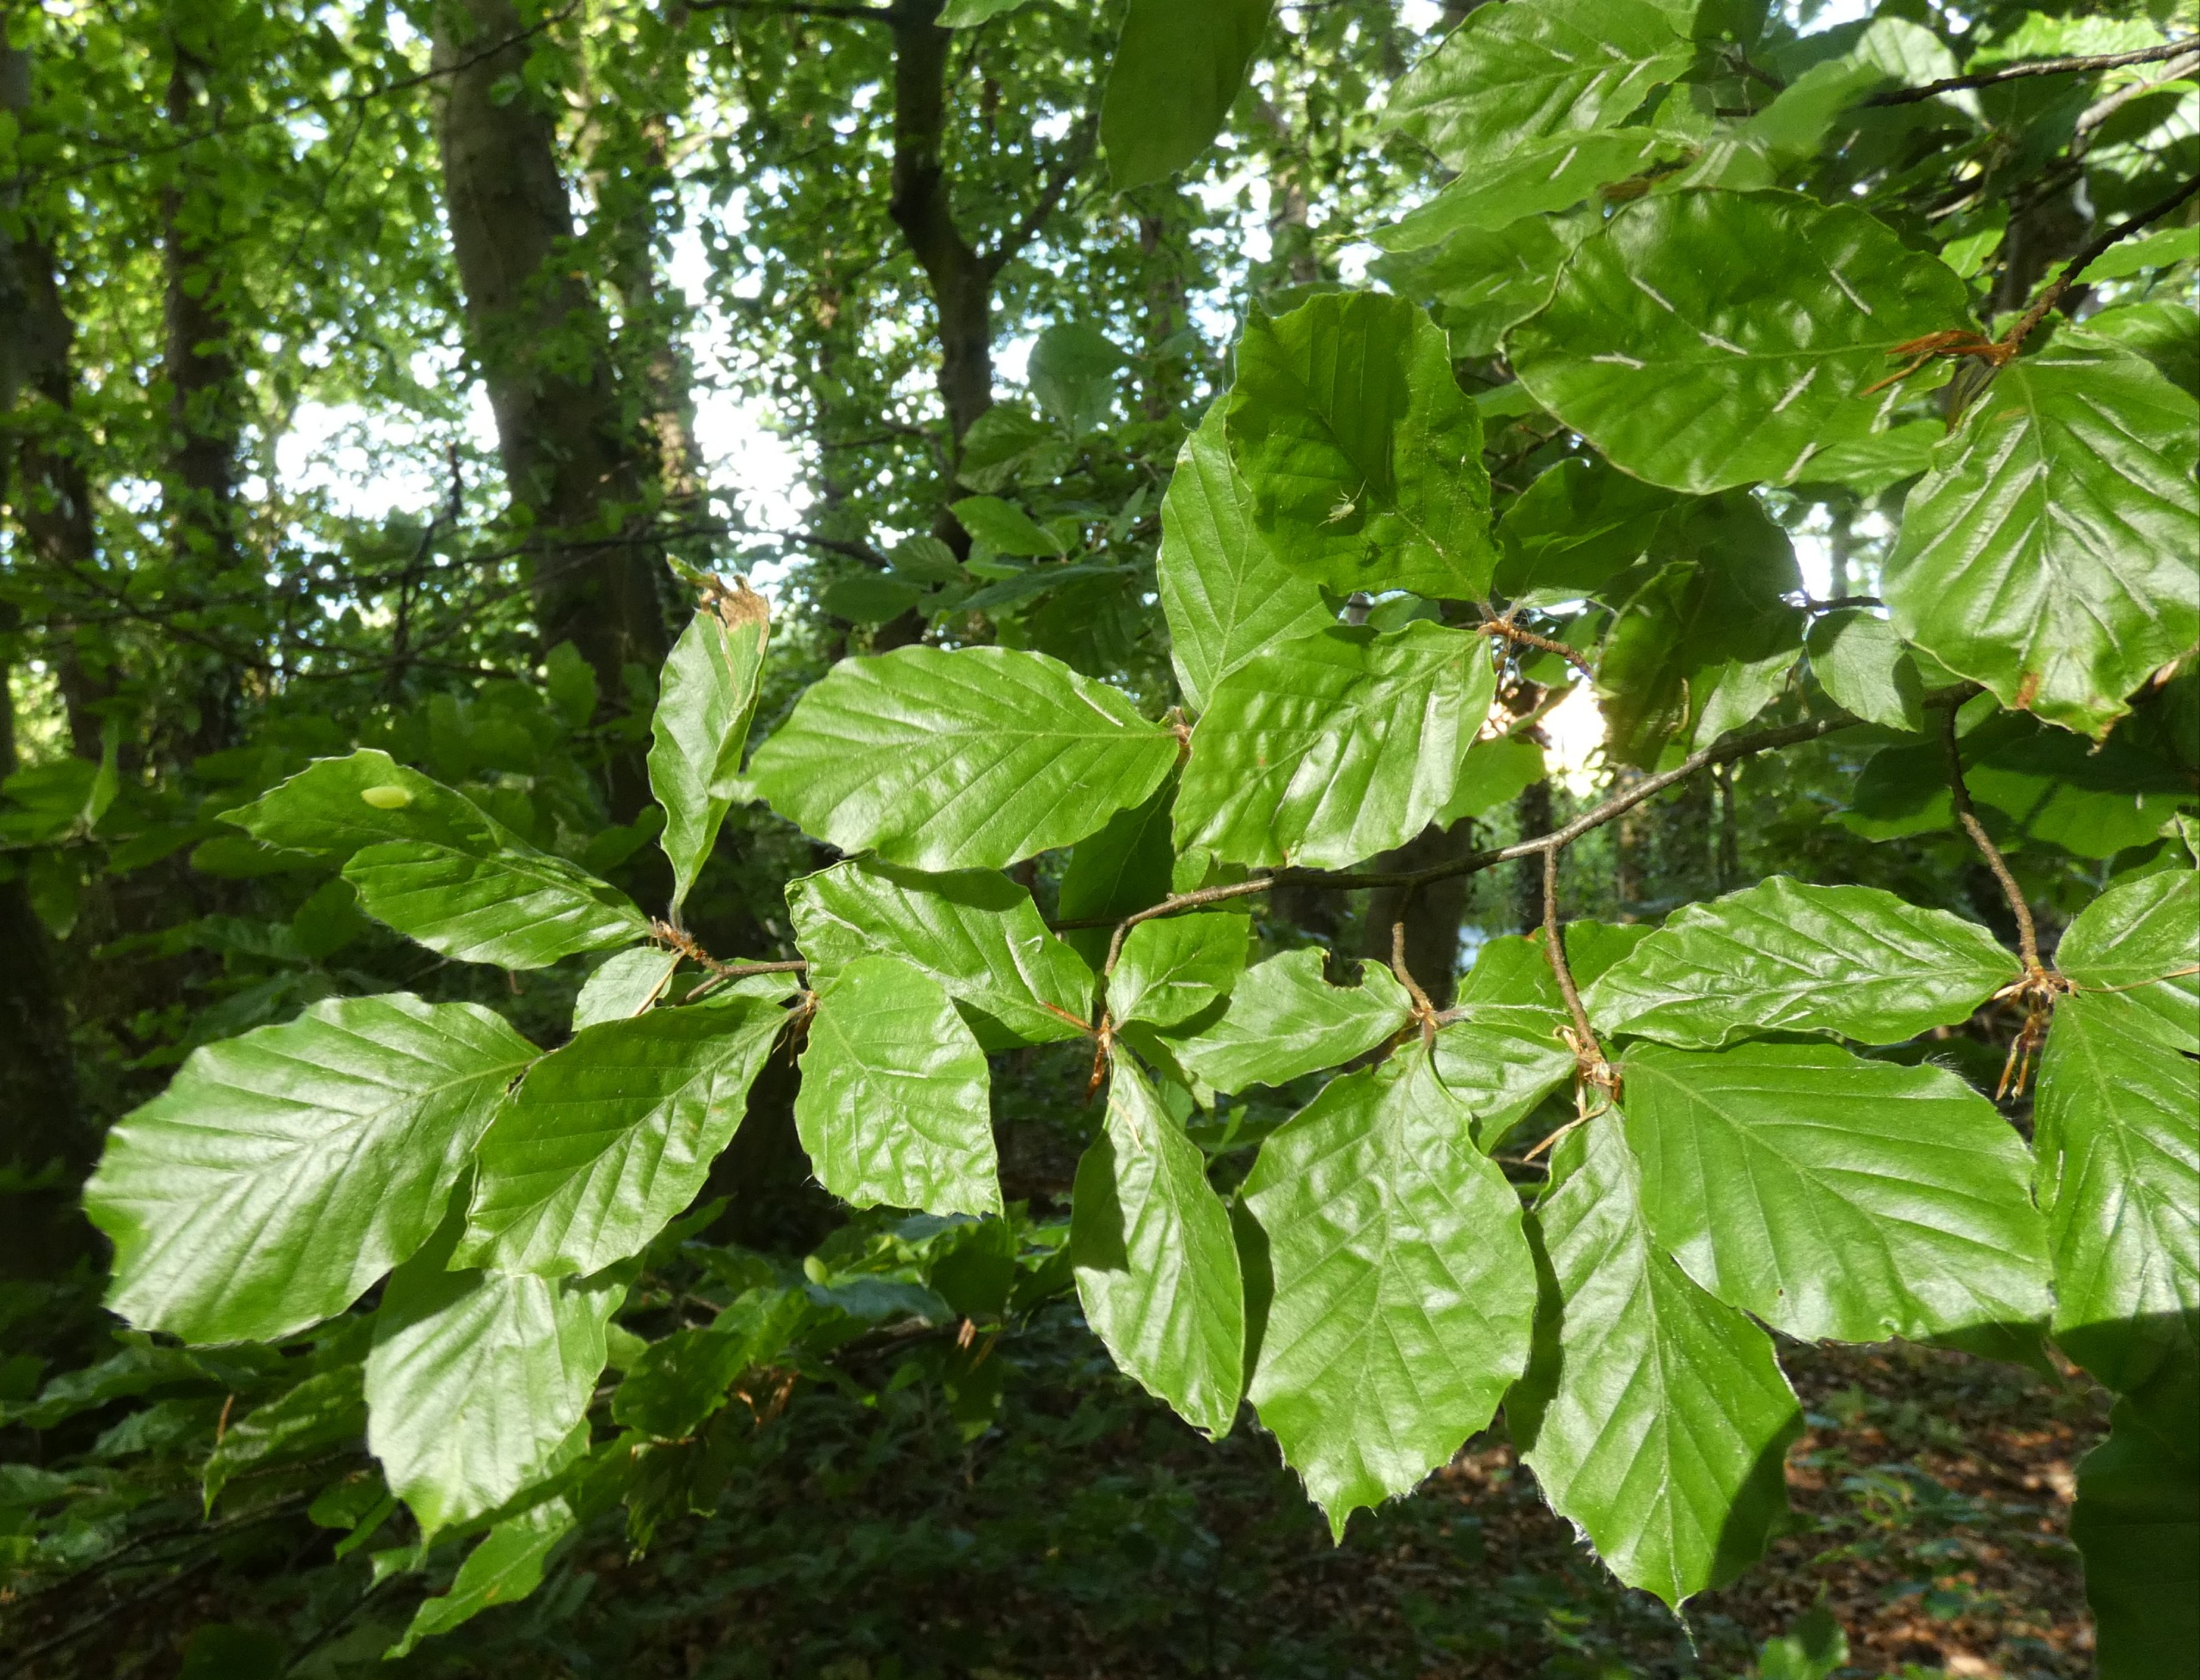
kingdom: Plantae
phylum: Tracheophyta
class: Magnoliopsida
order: Fagales
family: Fagaceae
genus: Fagus
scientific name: Fagus sylvatica
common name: Bøg
